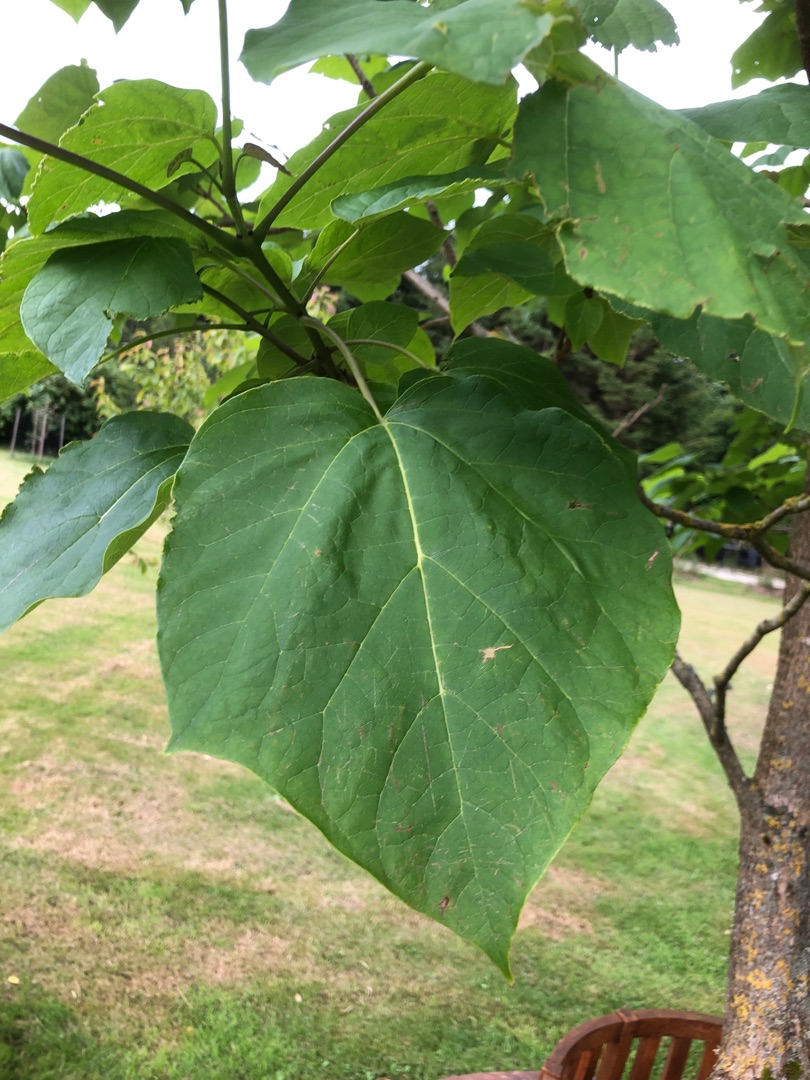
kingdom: Plantae
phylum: Tracheophyta
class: Magnoliopsida
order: Lamiales
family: Bignoniaceae
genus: Catalpa
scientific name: Catalpa ovata
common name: Trompetkrone
